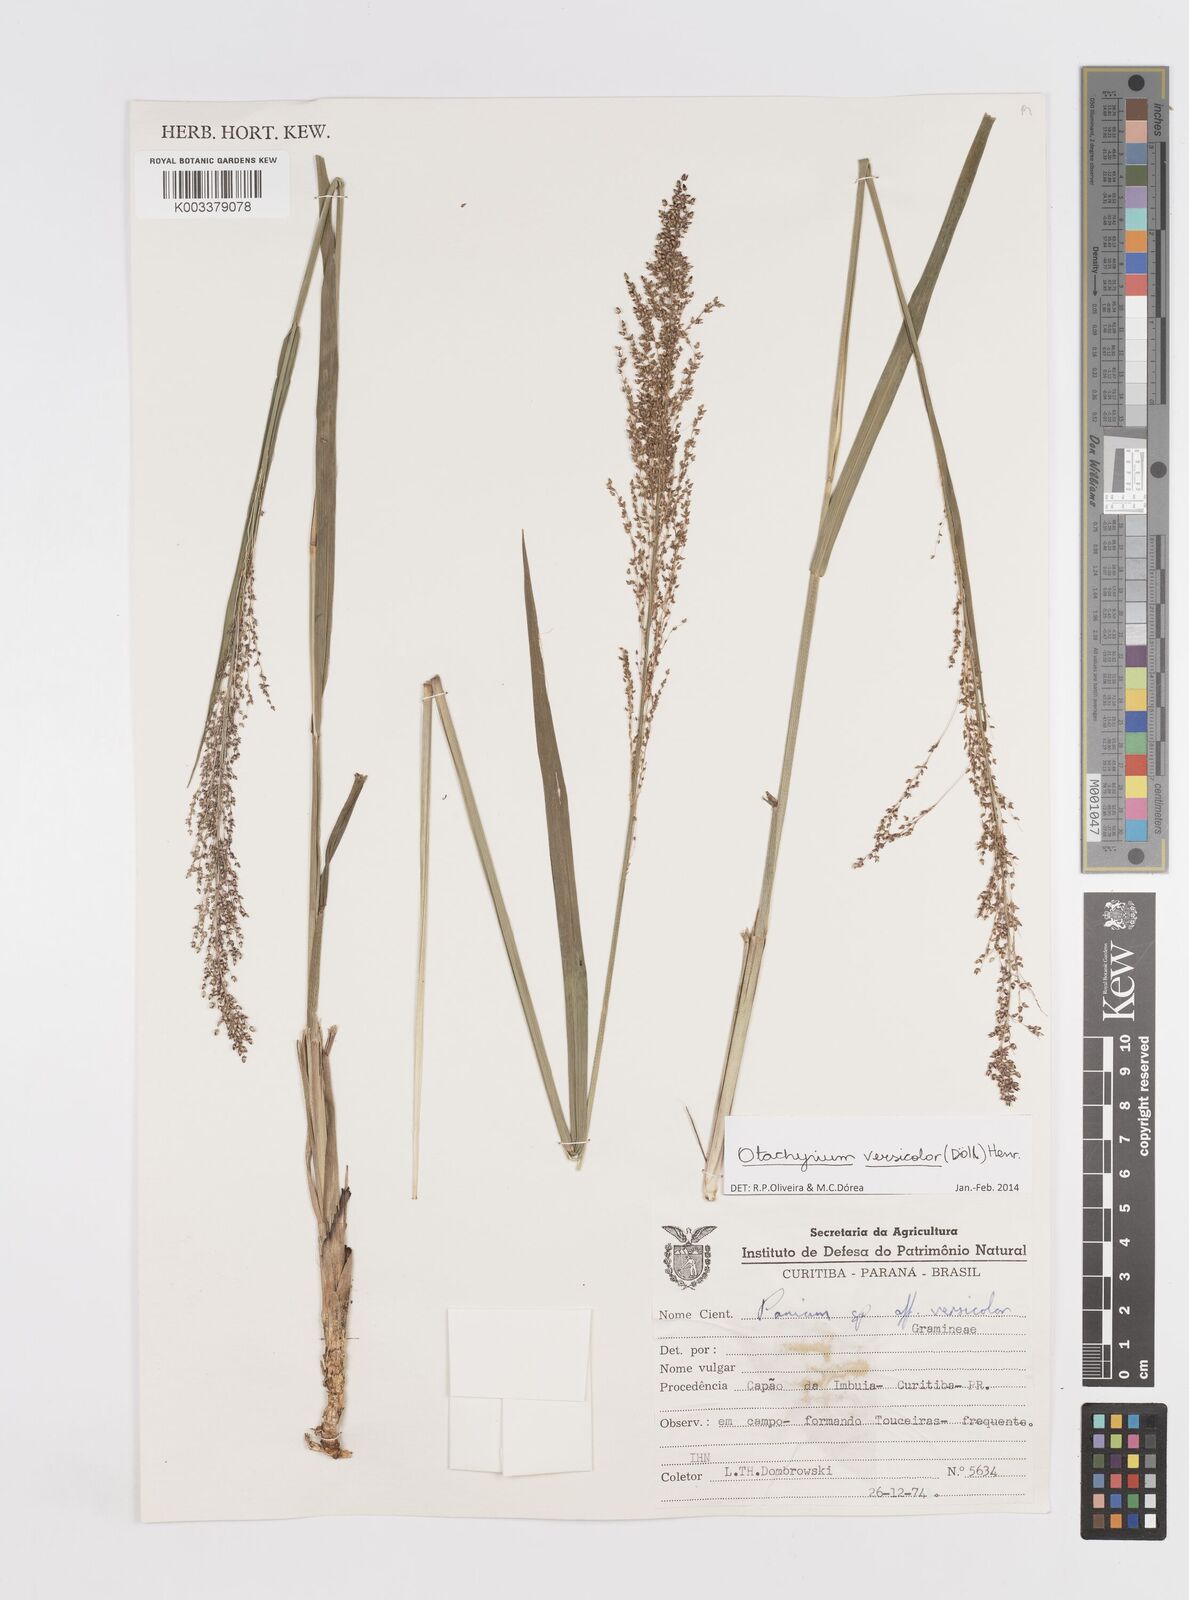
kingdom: Plantae
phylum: Tracheophyta
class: Liliopsida
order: Poales
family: Poaceae
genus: Otachyrium
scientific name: Otachyrium versicolor
